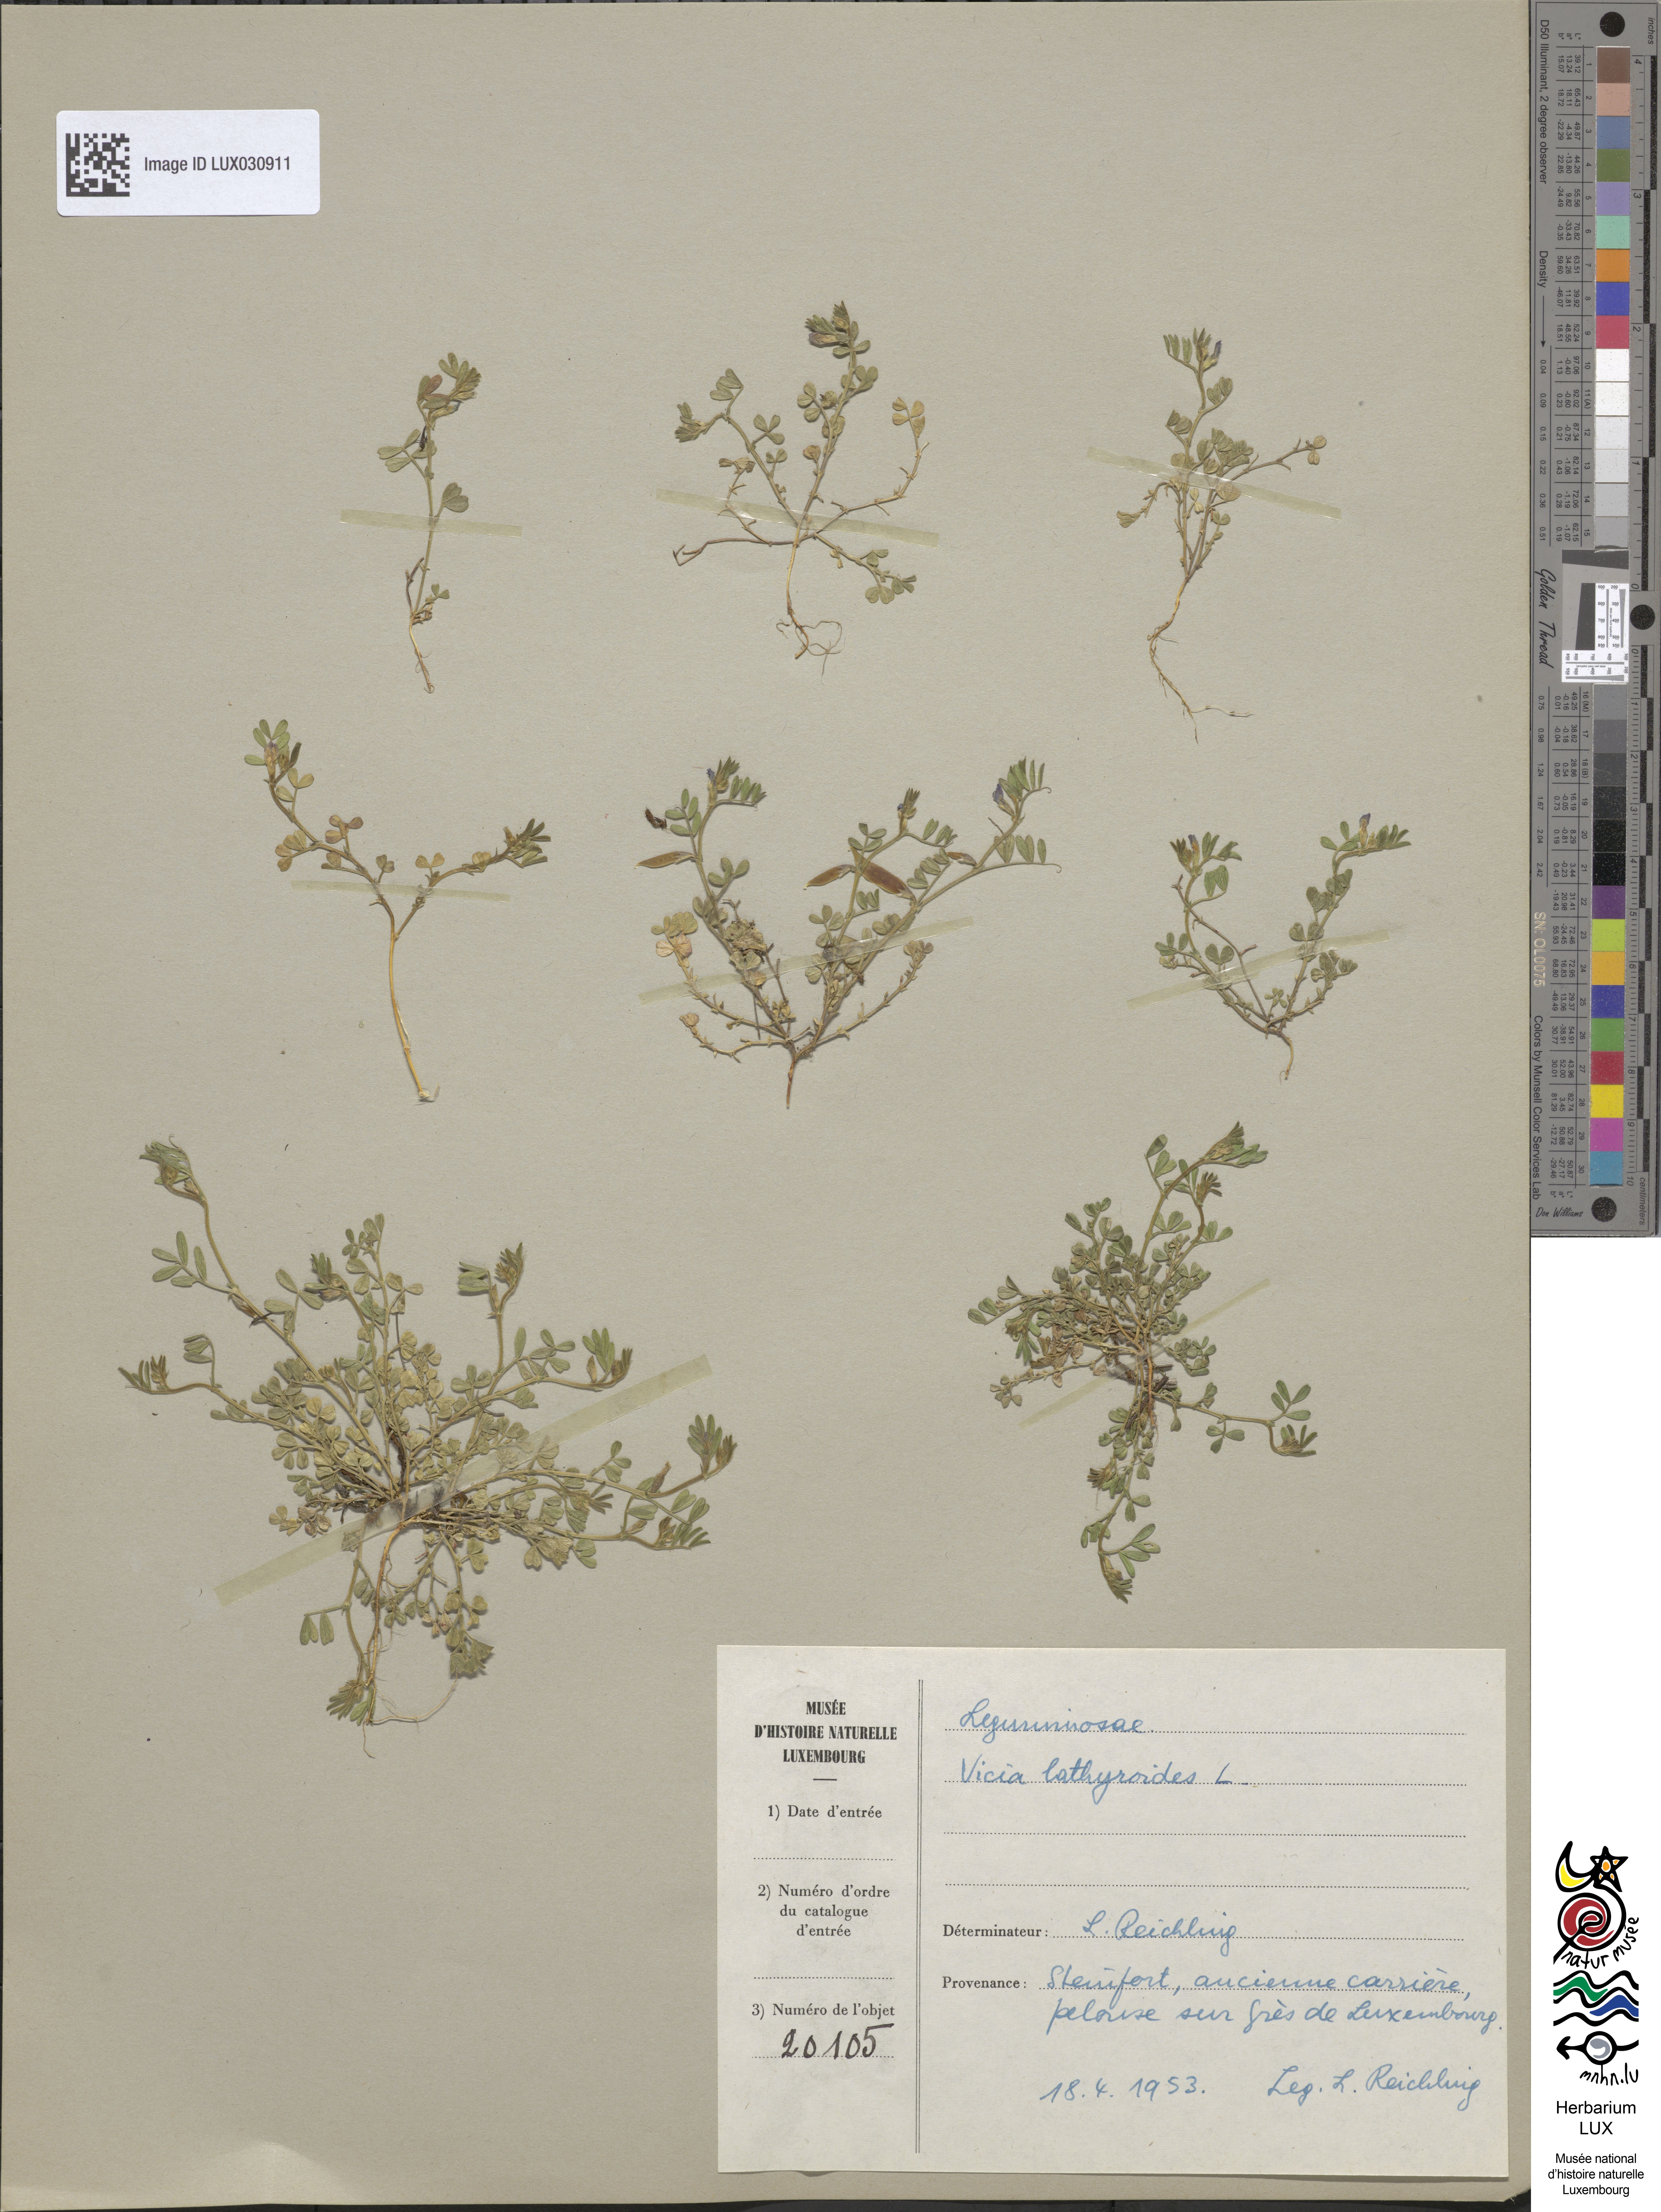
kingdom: Plantae
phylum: Tracheophyta
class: Magnoliopsida
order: Fabales
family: Fabaceae
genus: Vicia
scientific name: Vicia lathyroides
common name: Spring vetch
